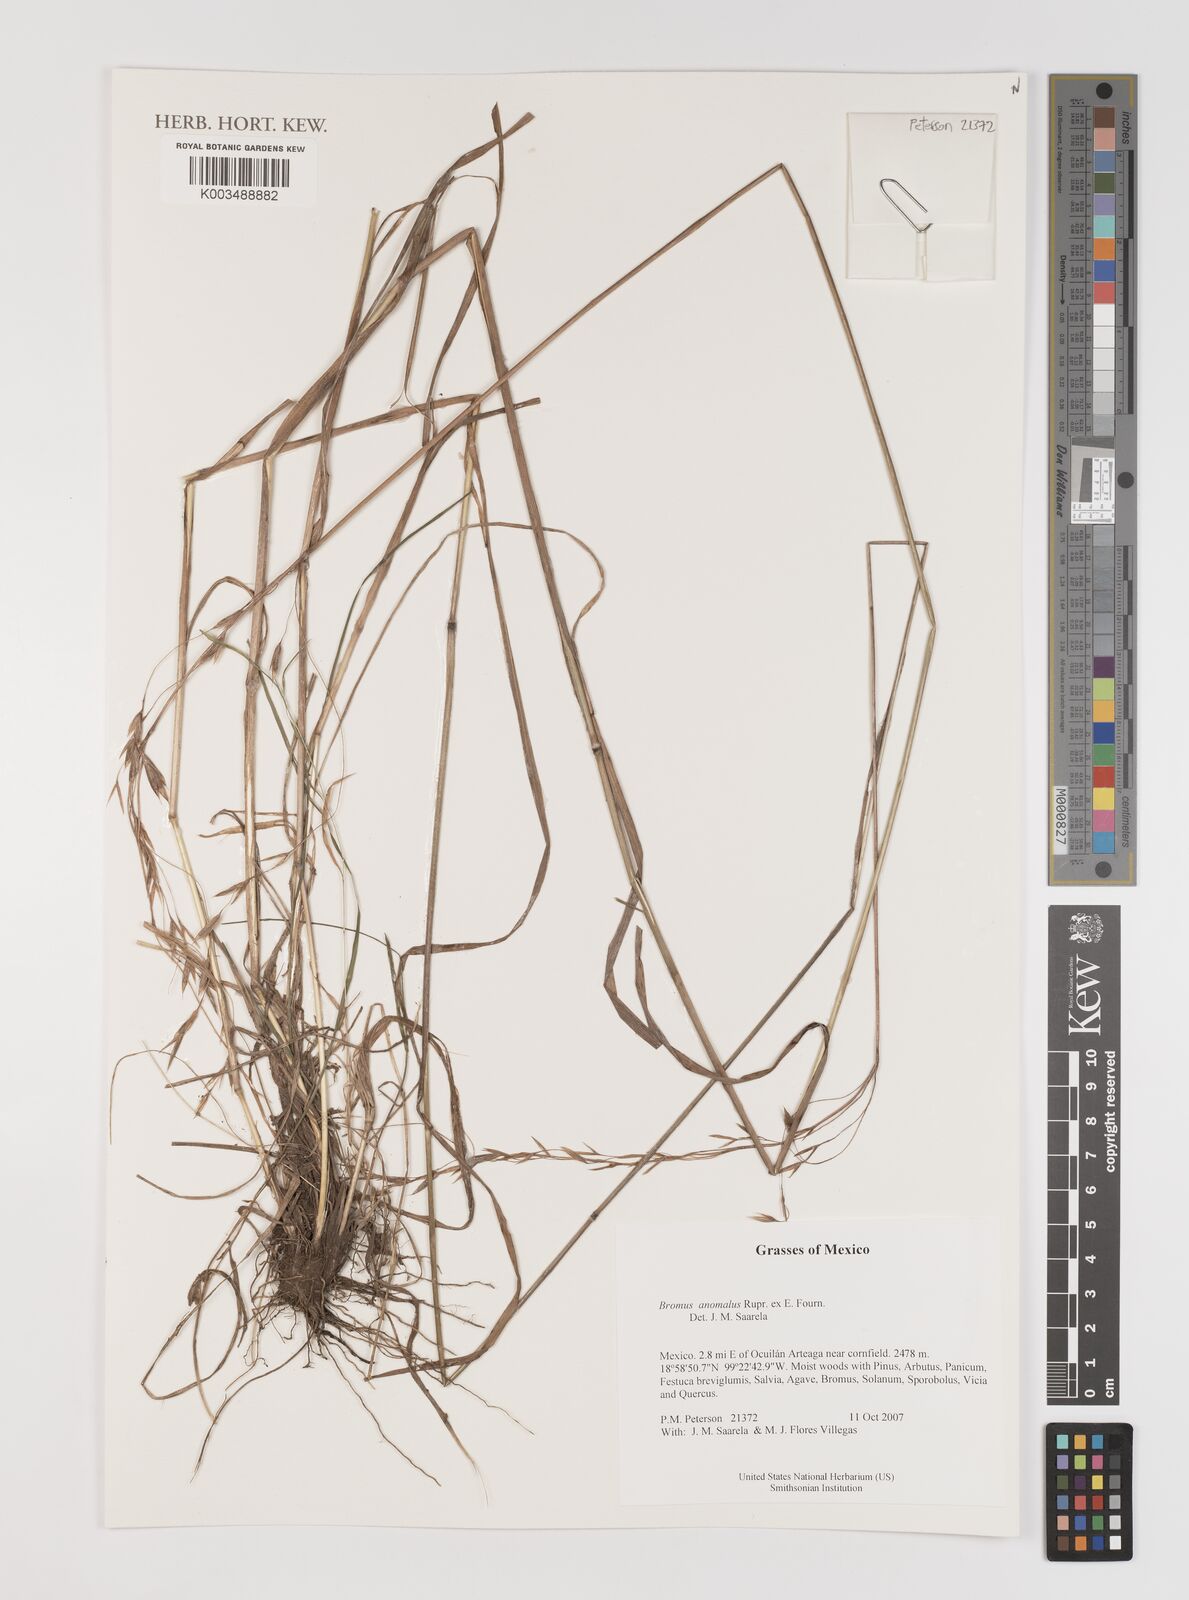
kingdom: Plantae
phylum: Tracheophyta
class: Liliopsida
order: Poales
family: Poaceae
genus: Bromus
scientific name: Bromus anomalus
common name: Nodding brome
